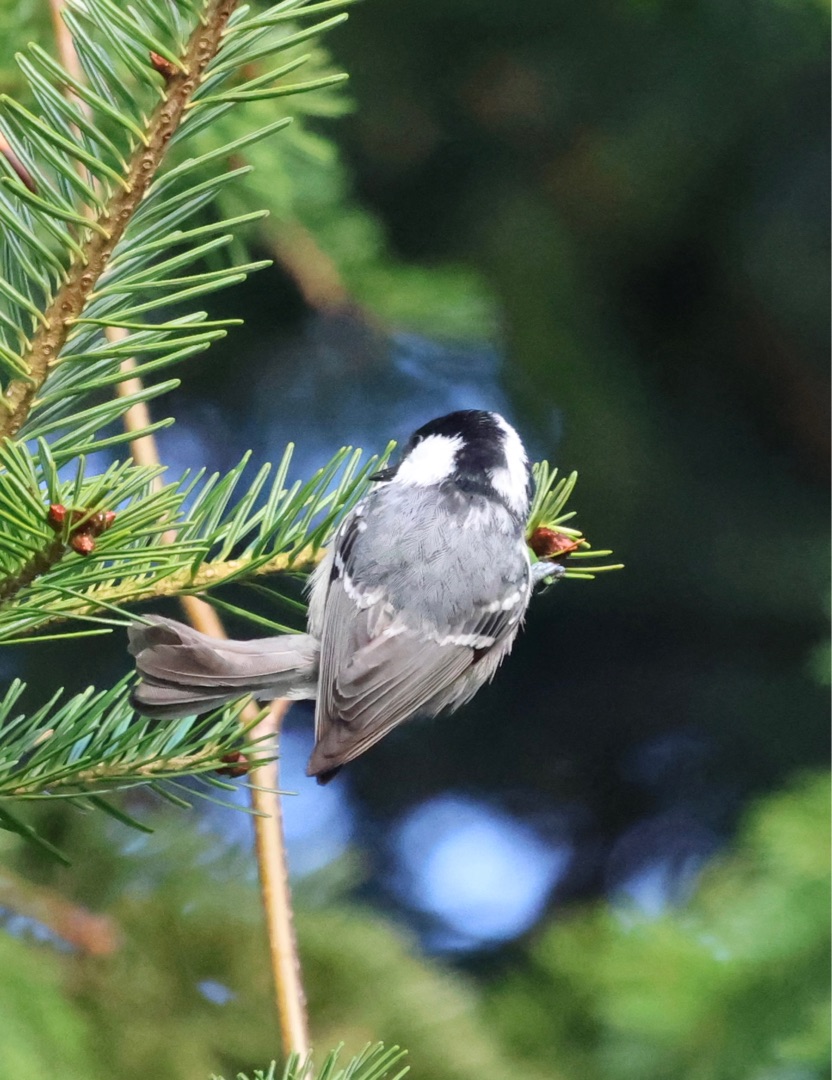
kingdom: Animalia
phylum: Chordata
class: Aves
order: Passeriformes
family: Paridae
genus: Periparus
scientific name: Periparus ater
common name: Sortmejse
